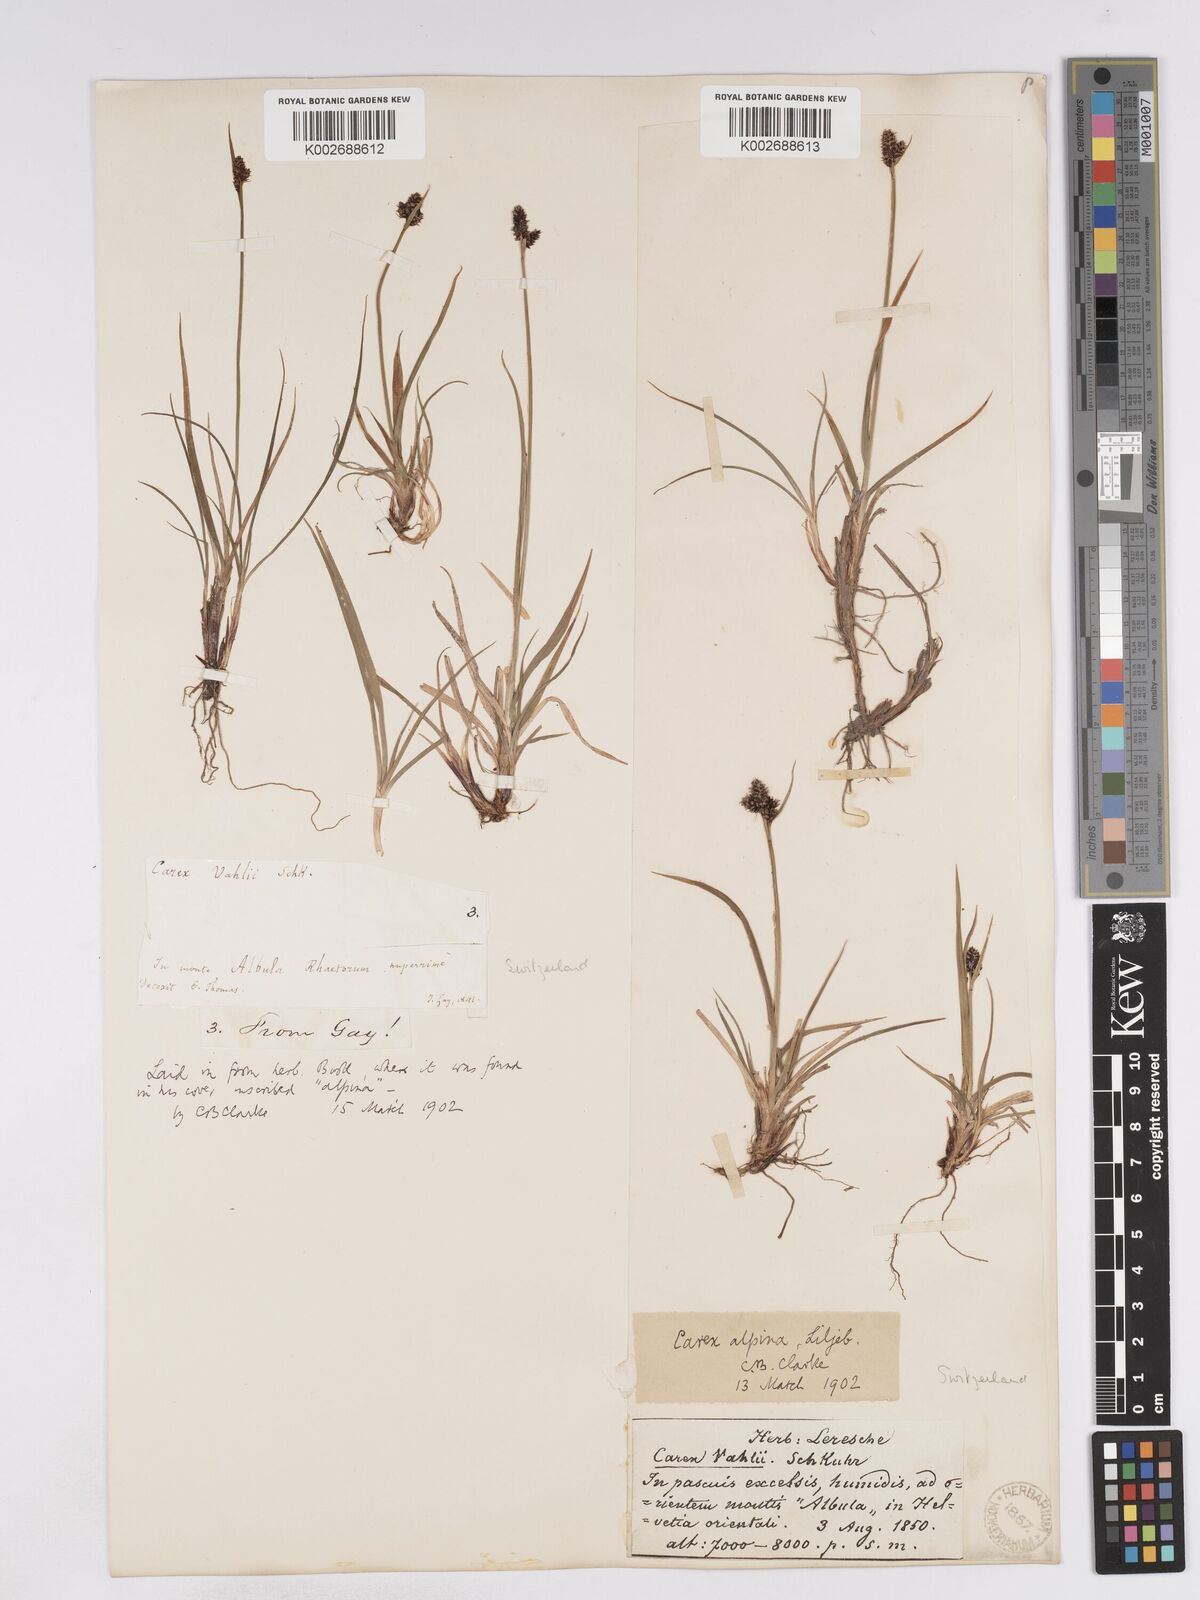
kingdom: Plantae
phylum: Tracheophyta
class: Liliopsida
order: Poales
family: Cyperaceae
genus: Carex
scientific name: Carex norvegica
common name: Close-headed alpine-sedge
